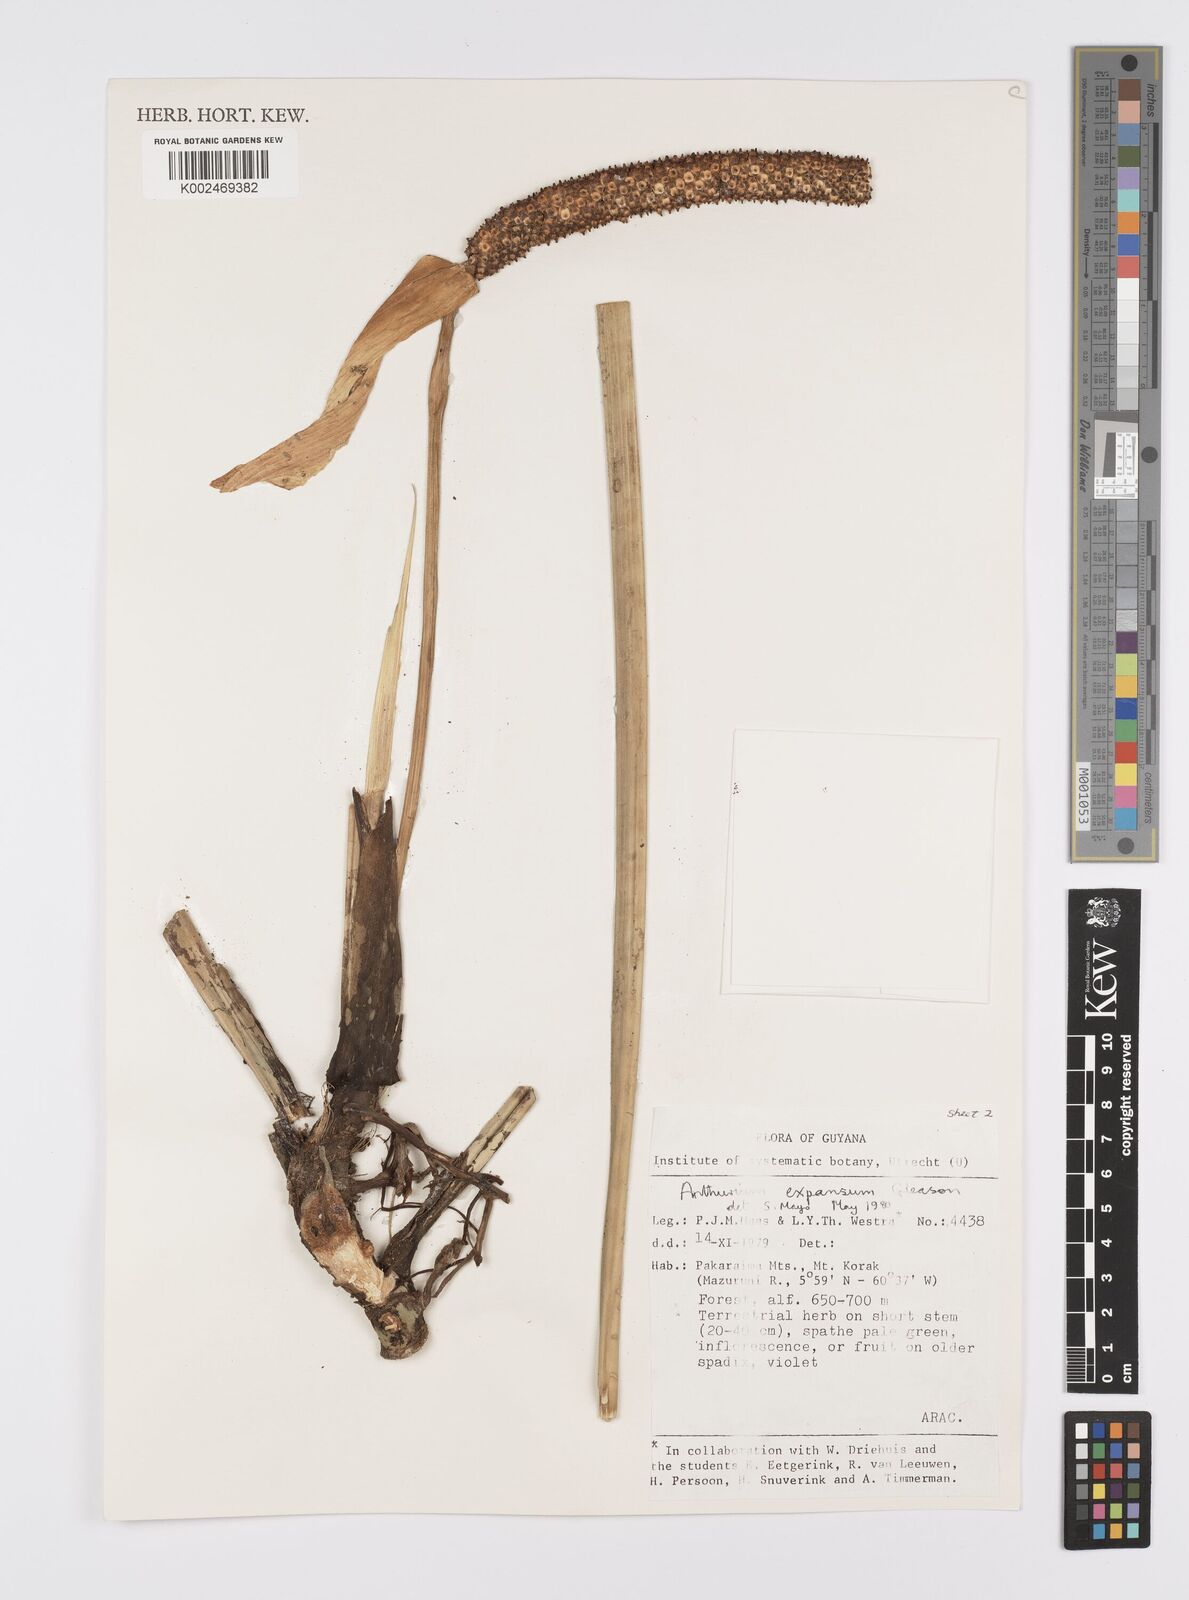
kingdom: Plantae
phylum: Tracheophyta
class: Liliopsida
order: Alismatales
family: Araceae
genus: Anthurium
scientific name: Anthurium expansum
